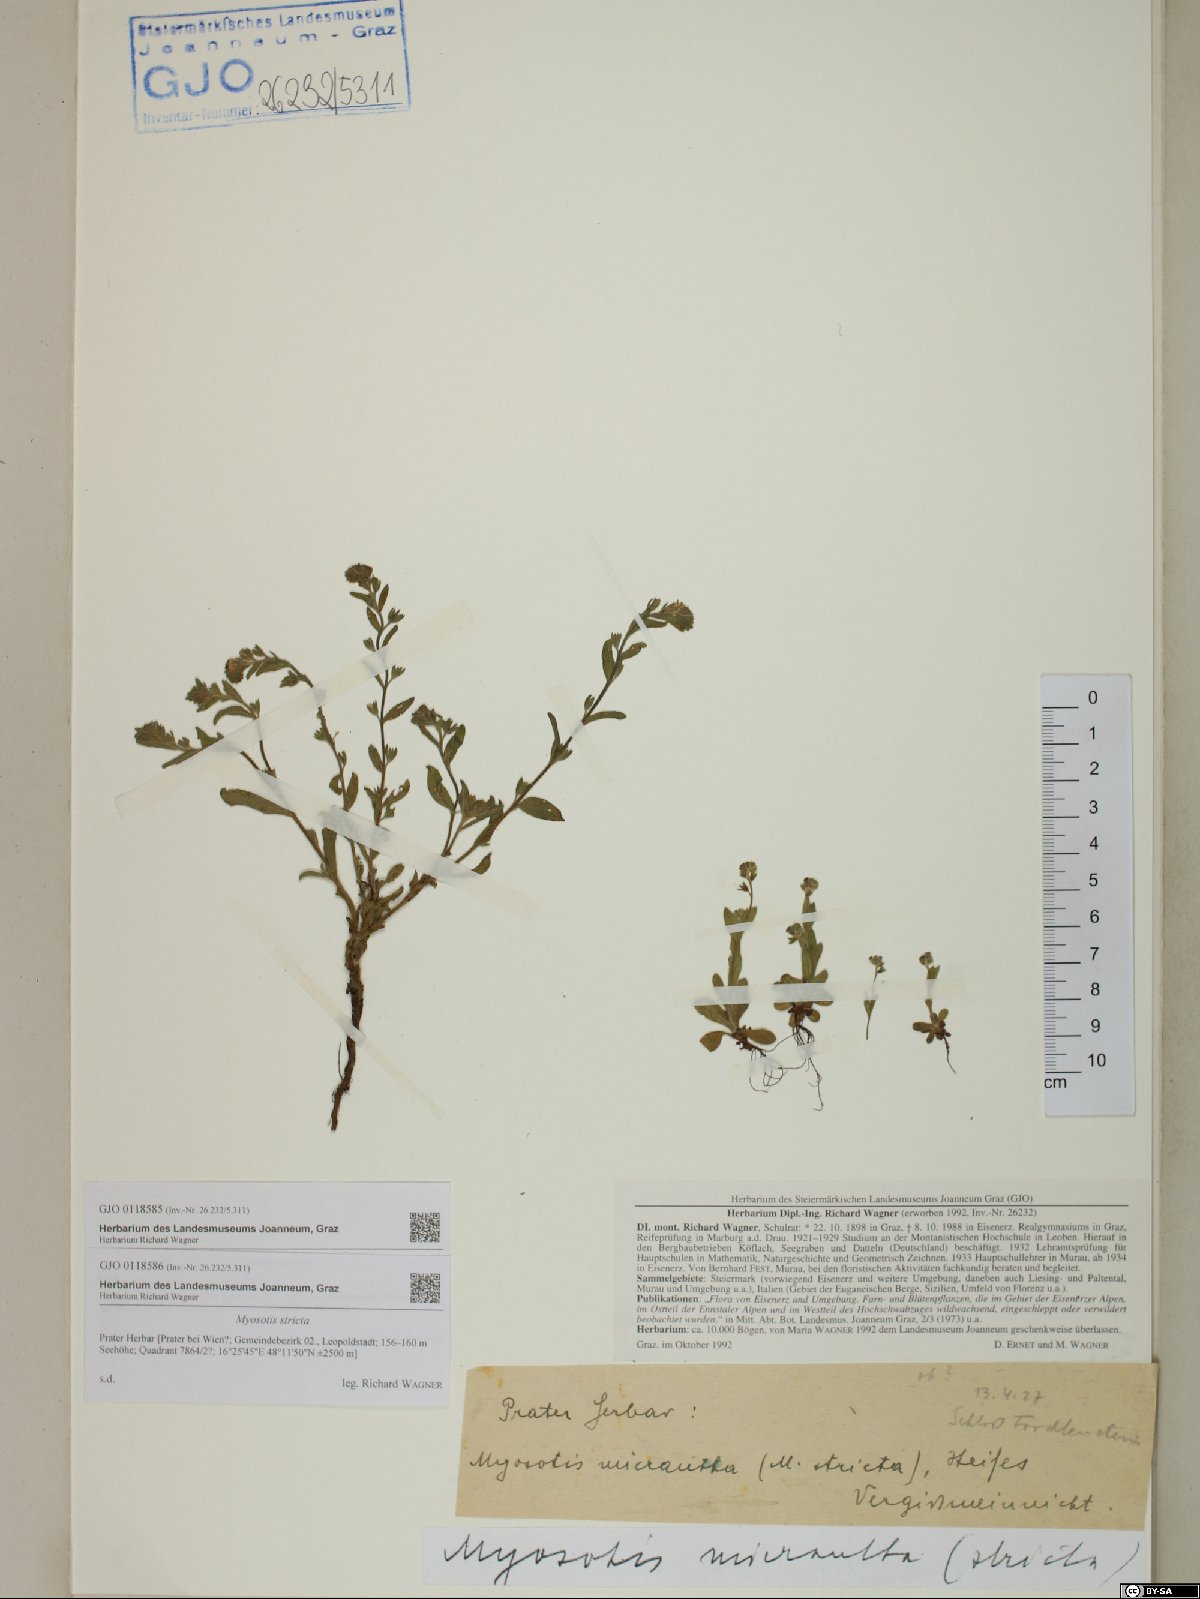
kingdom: Plantae
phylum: Tracheophyta
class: Magnoliopsida
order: Boraginales
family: Boraginaceae
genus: Myosotis
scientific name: Myosotis stricta
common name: Strict forget-me-not
